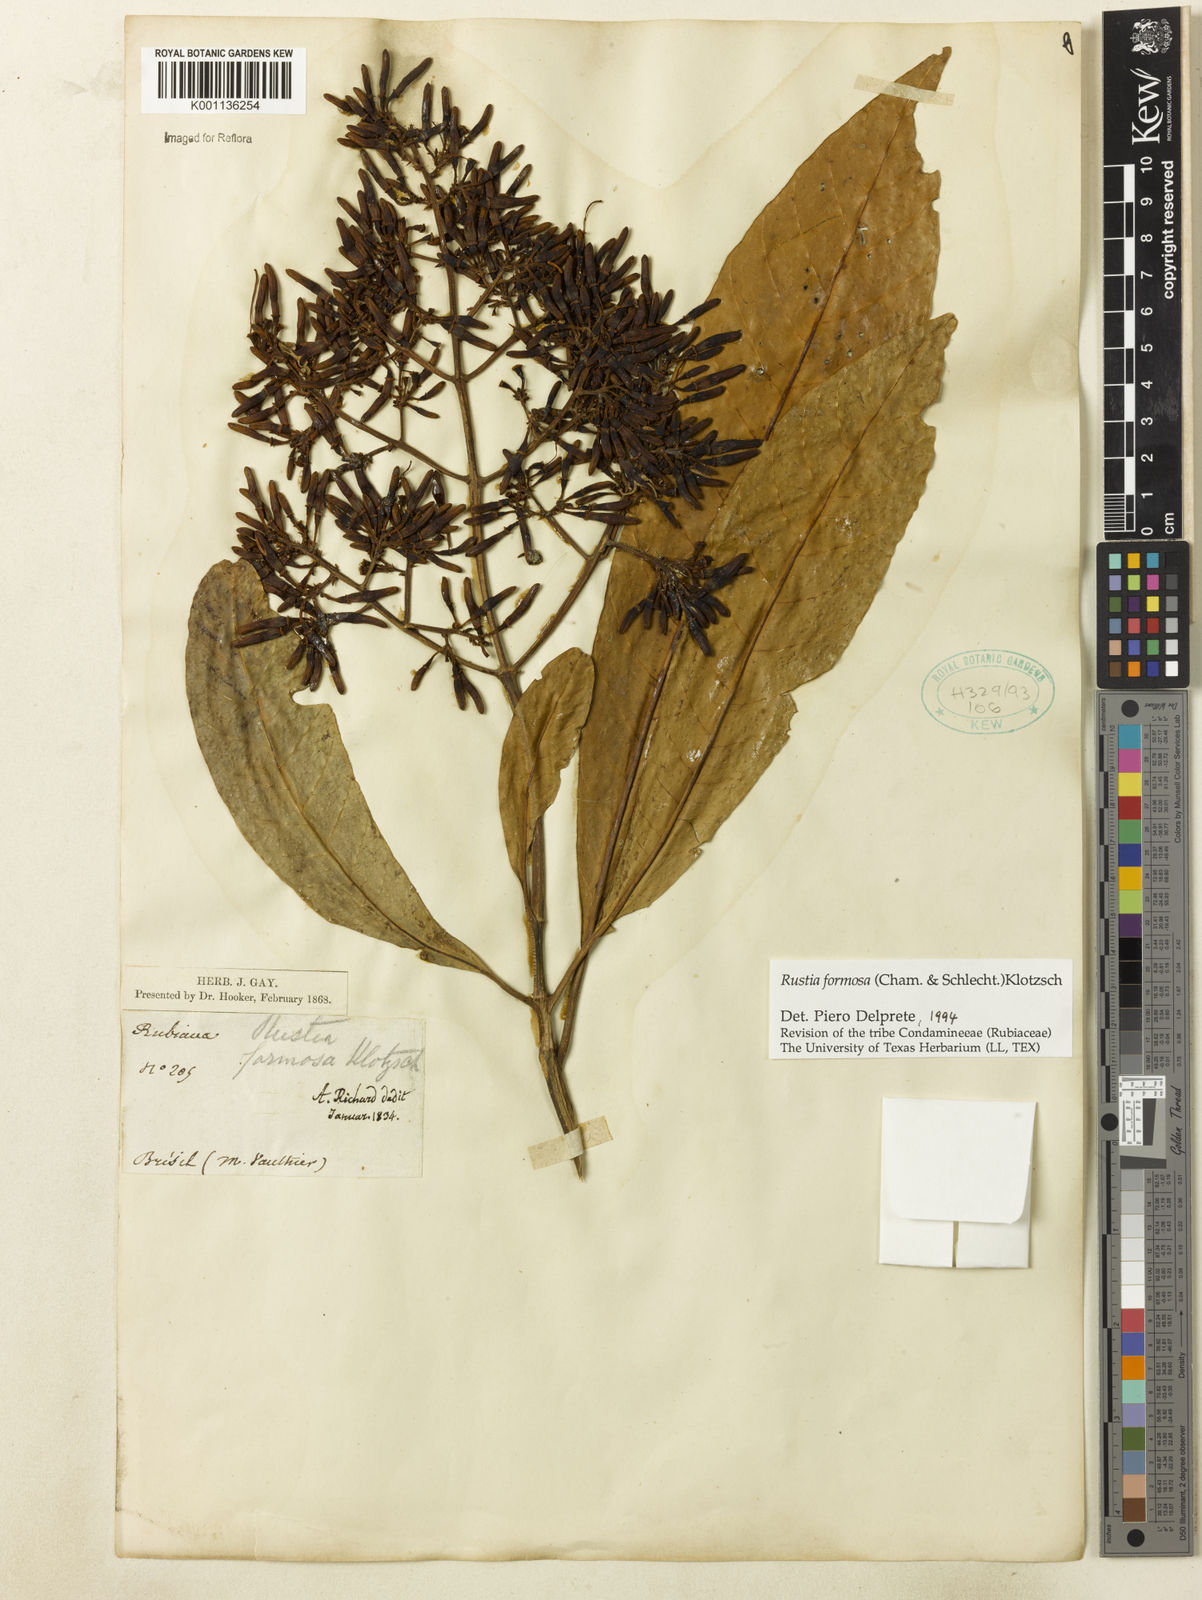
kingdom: Plantae
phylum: Tracheophyta
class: Magnoliopsida
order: Gentianales
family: Rubiaceae
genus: Rustia
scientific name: Rustia formosa
